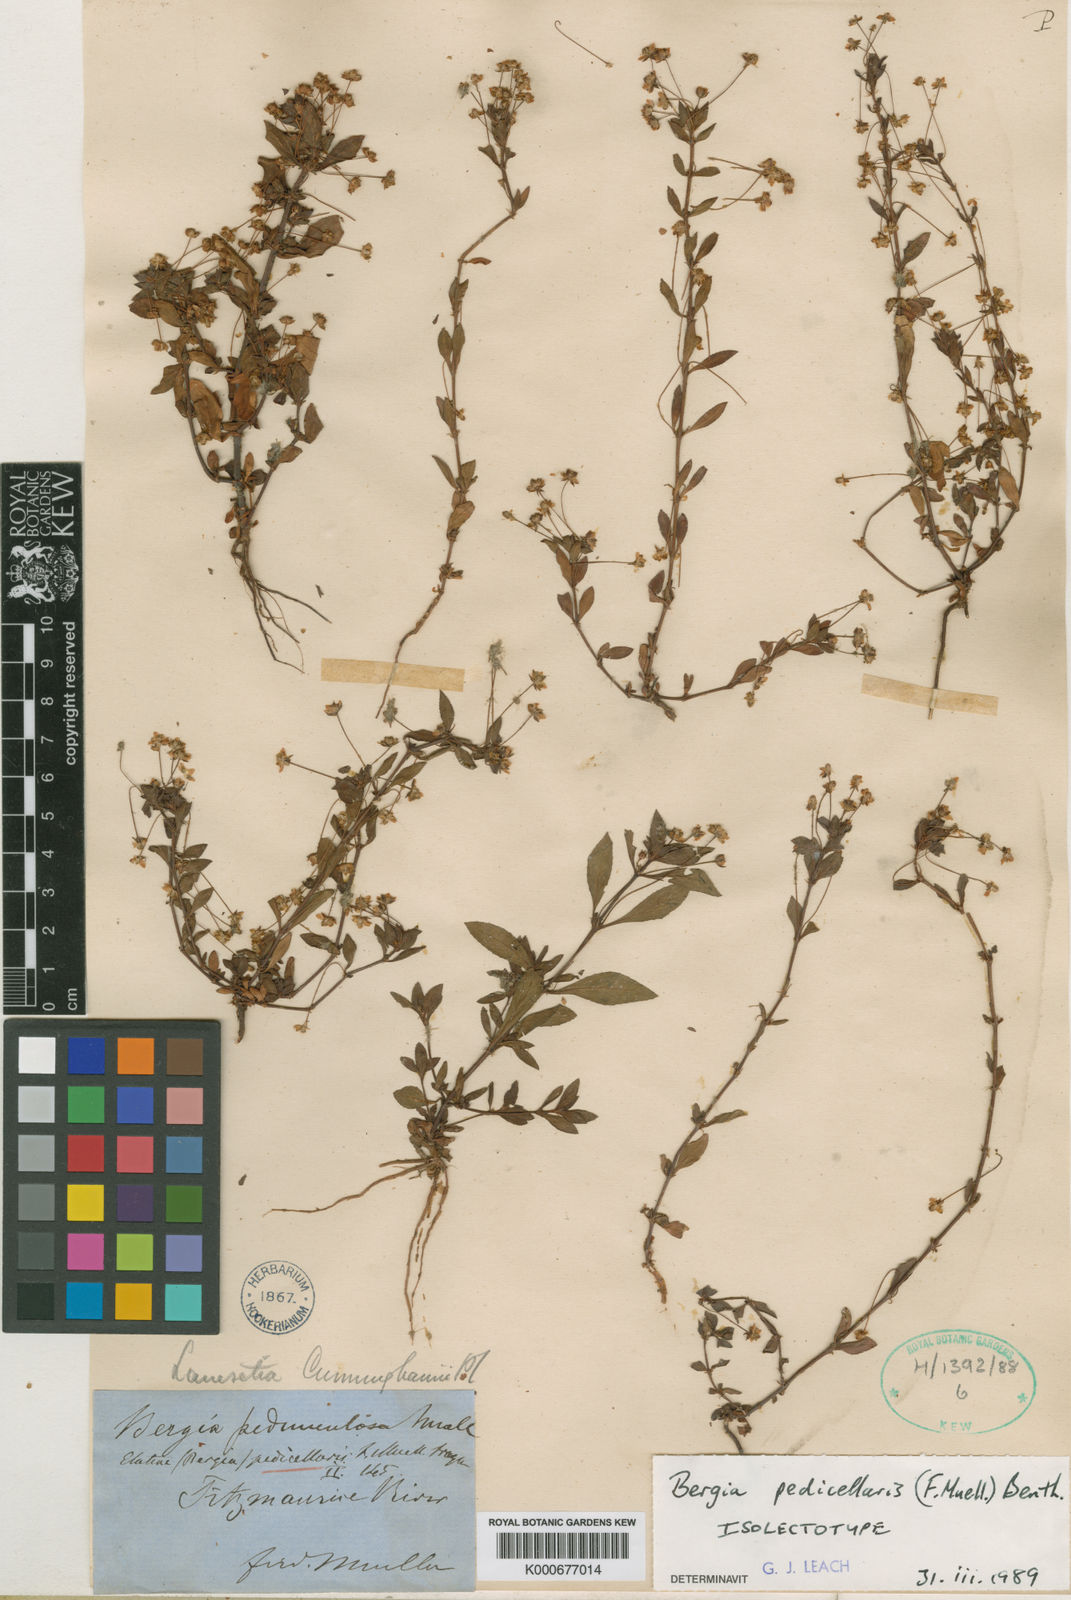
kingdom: Plantae
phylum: Tracheophyta
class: Magnoliopsida
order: Malpighiales
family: Elatinaceae
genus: Bergia
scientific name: Bergia pedicellaris
